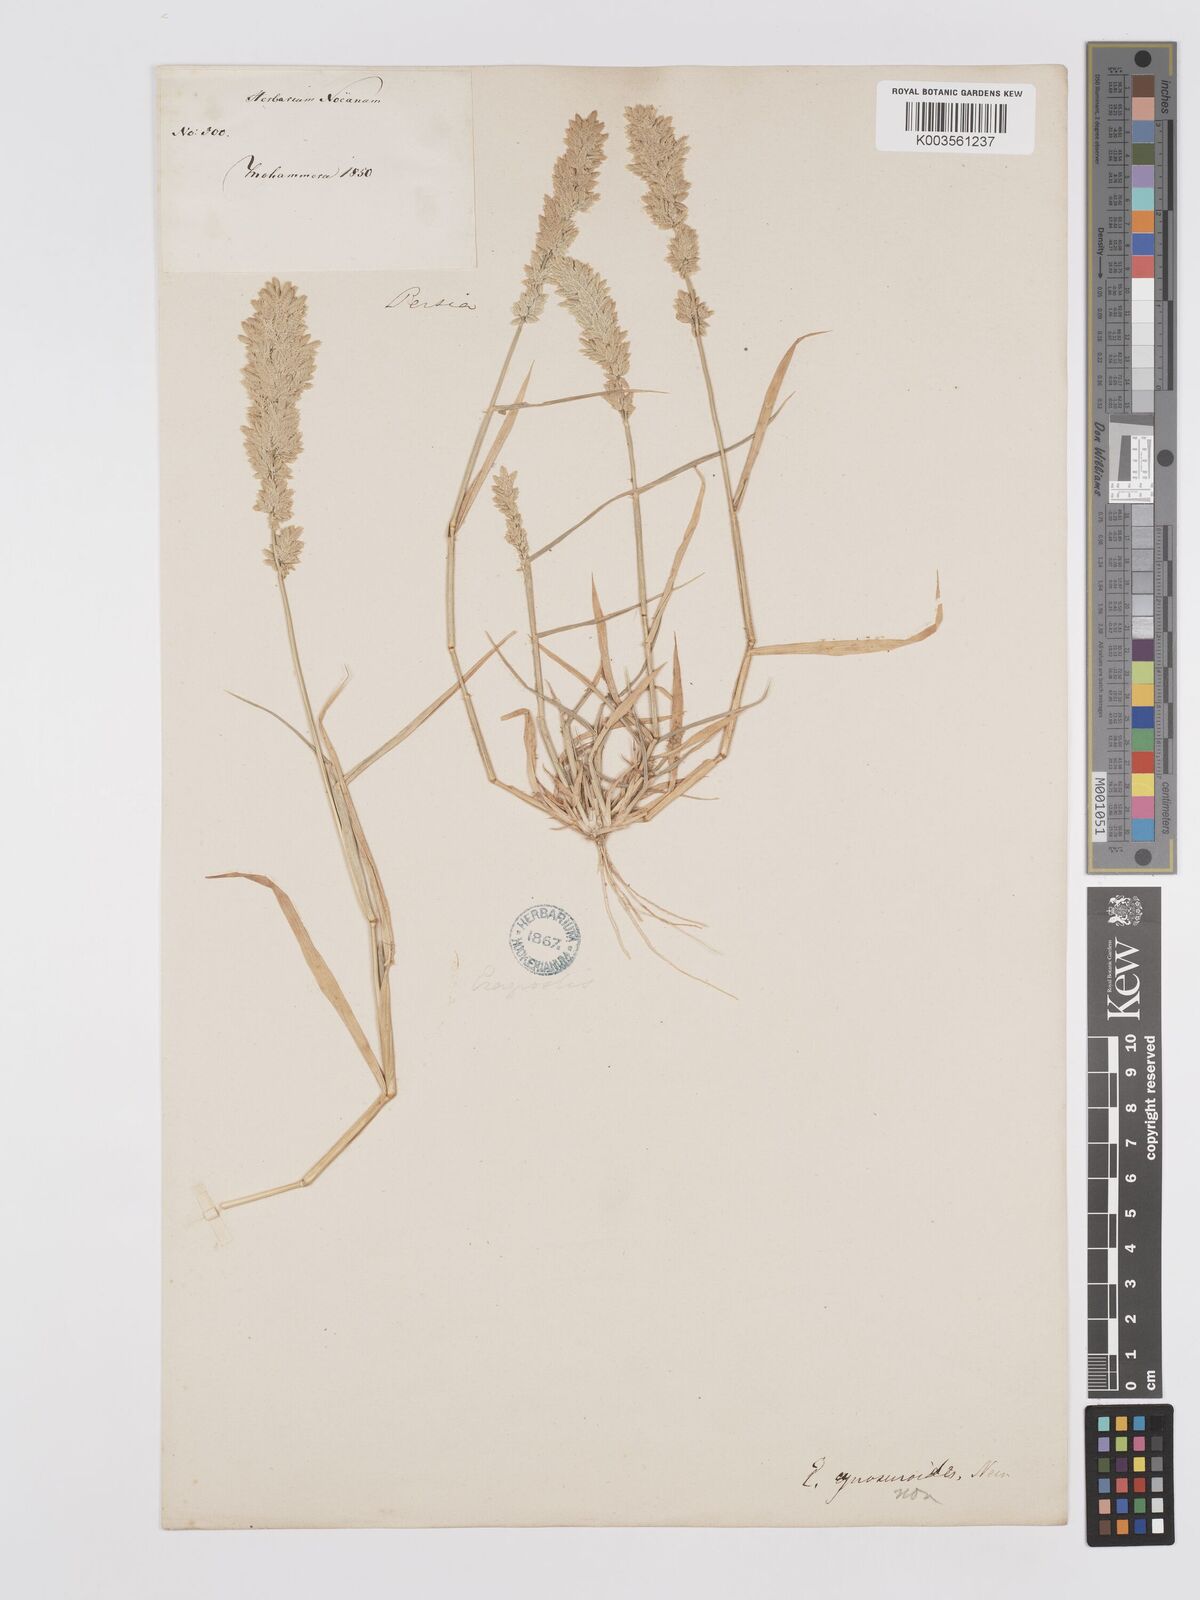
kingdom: Plantae
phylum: Tracheophyta
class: Liliopsida
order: Poales
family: Poaceae
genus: Eragrostis
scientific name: Eragrostis cilianensis
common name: Stinkgrass
